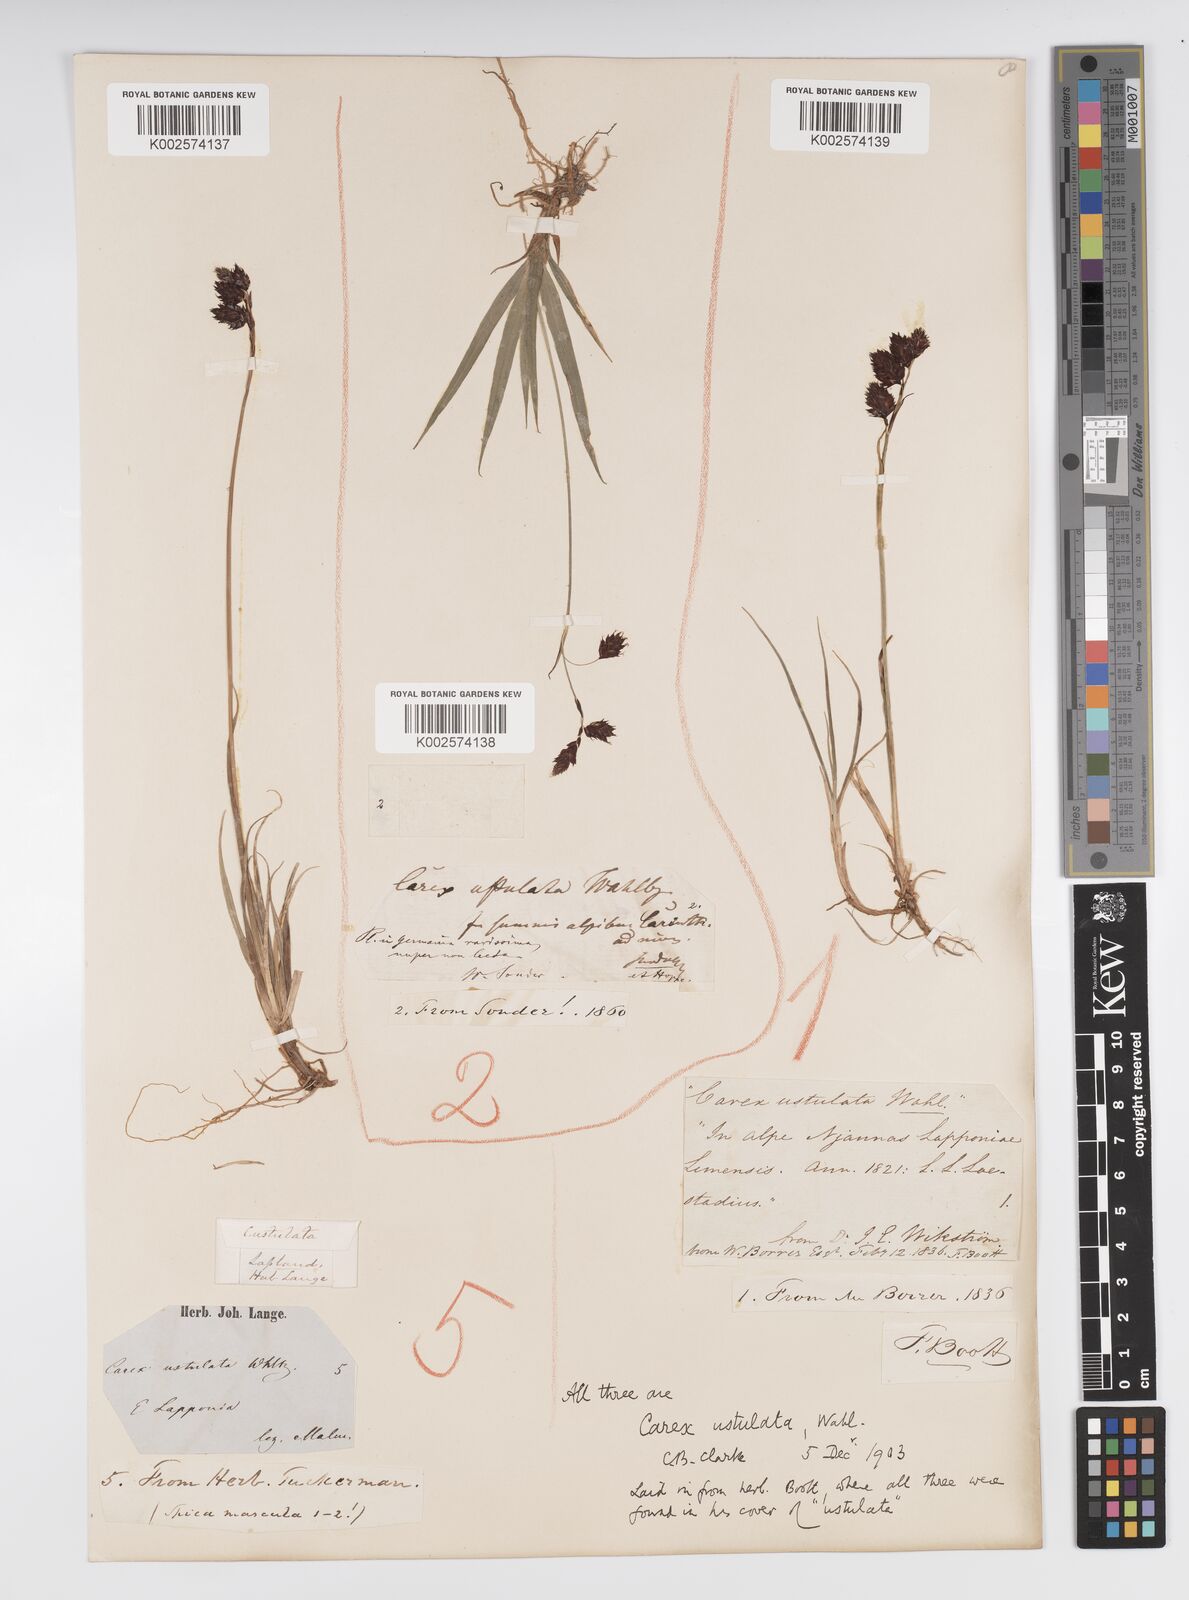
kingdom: Plantae
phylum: Tracheophyta
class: Liliopsida
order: Poales
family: Cyperaceae
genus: Carex
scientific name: Carex atrofusca
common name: Scorched alpine-sedge
